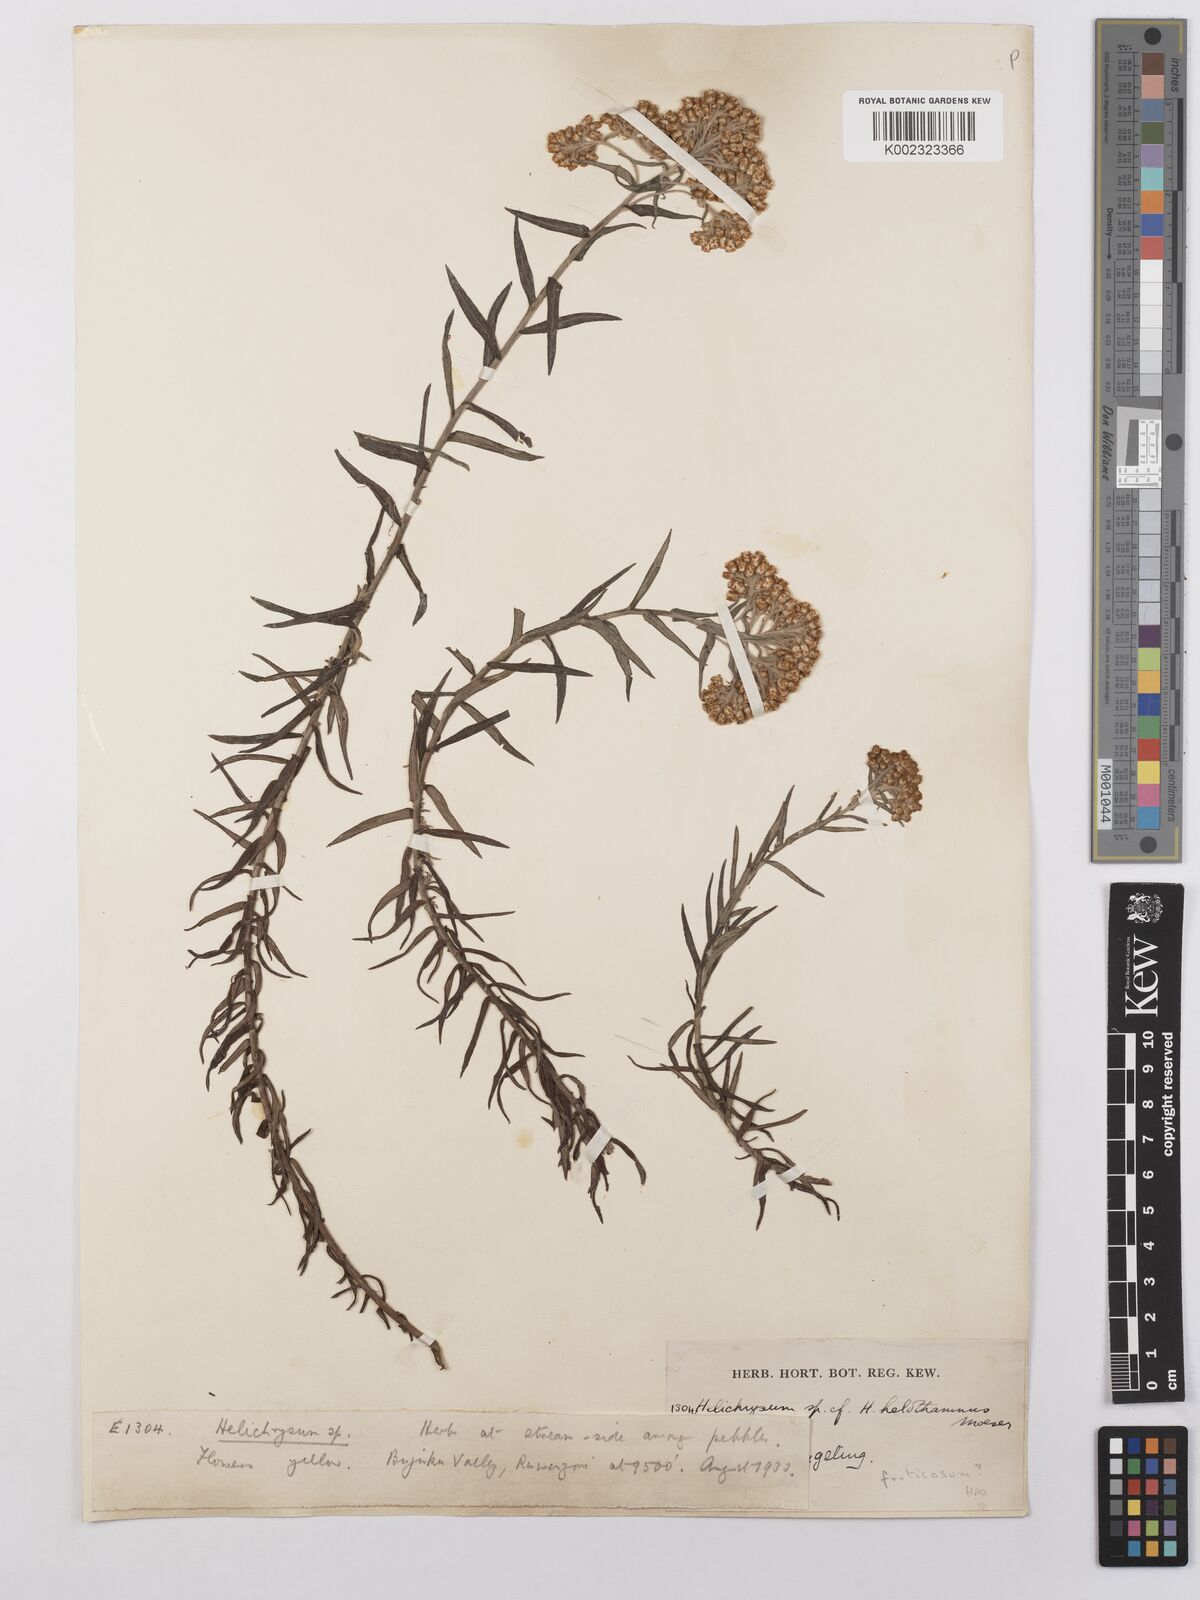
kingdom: Plantae
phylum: Tracheophyta
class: Magnoliopsida
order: Asterales
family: Asteraceae
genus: Helichrysum
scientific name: Helichrysum forskahlii
